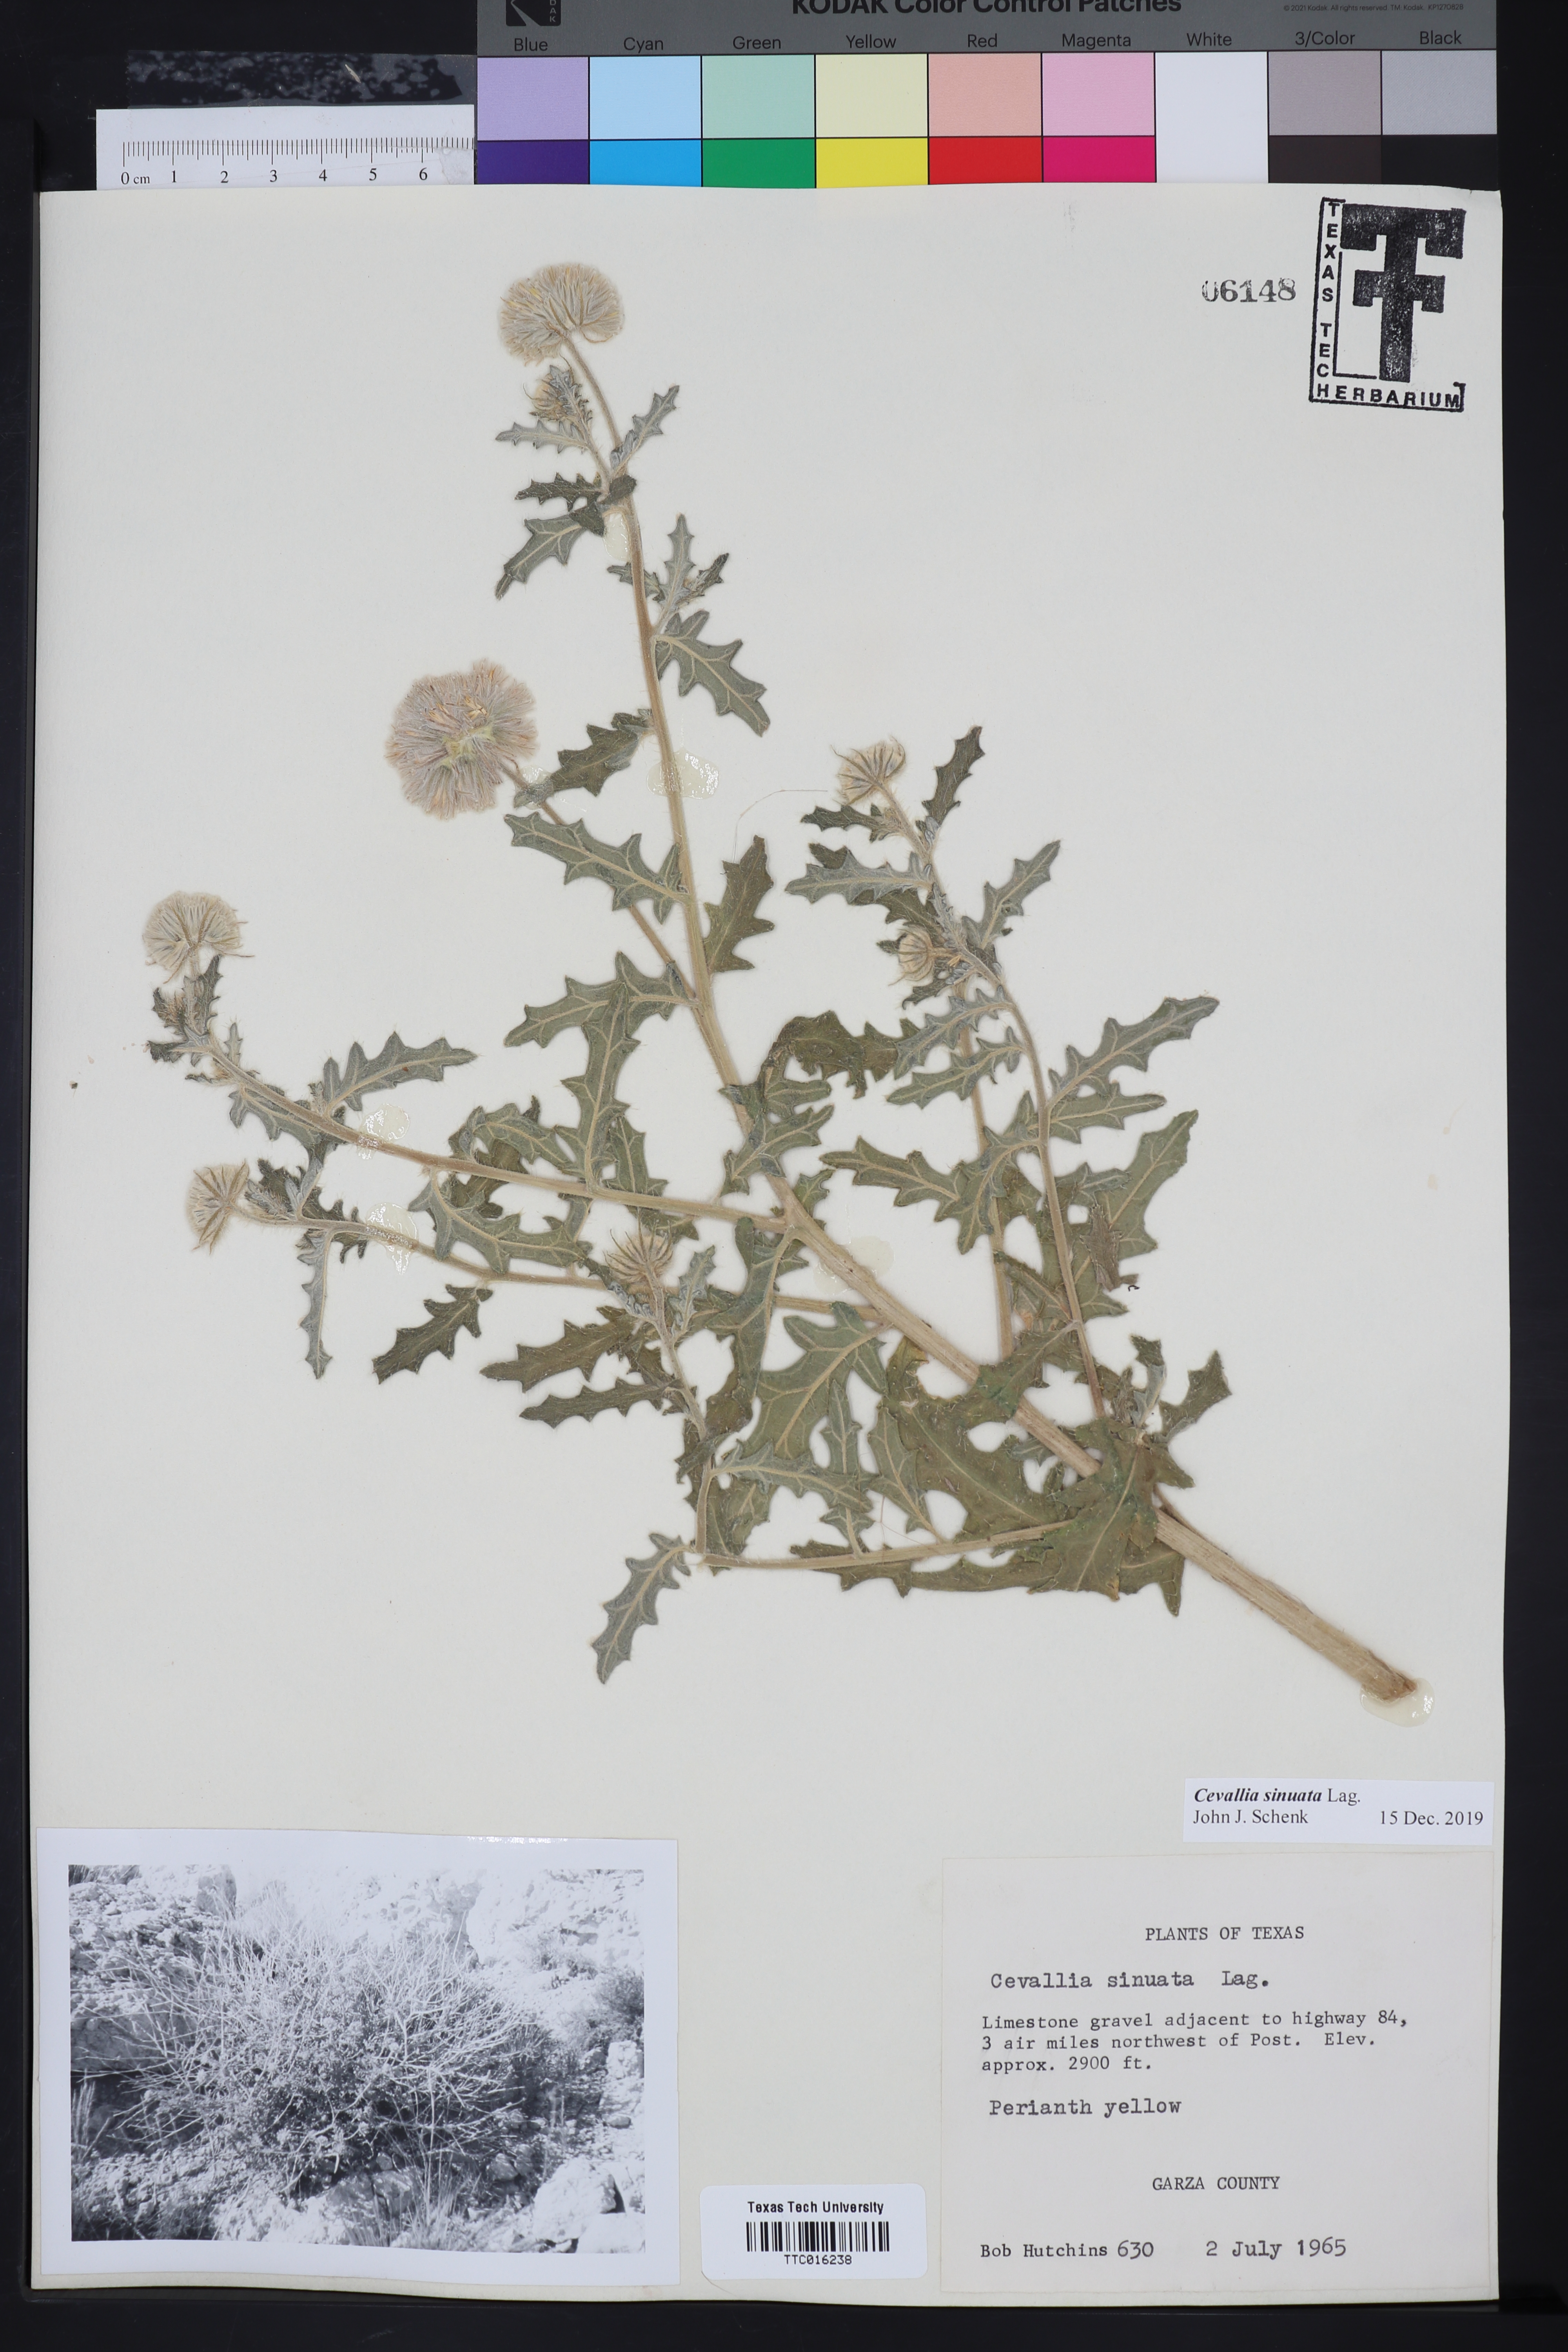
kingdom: Plantae
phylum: Tracheophyta
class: Magnoliopsida
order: Cornales
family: Loasaceae
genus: Cevallia
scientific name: Cevallia sinuata
